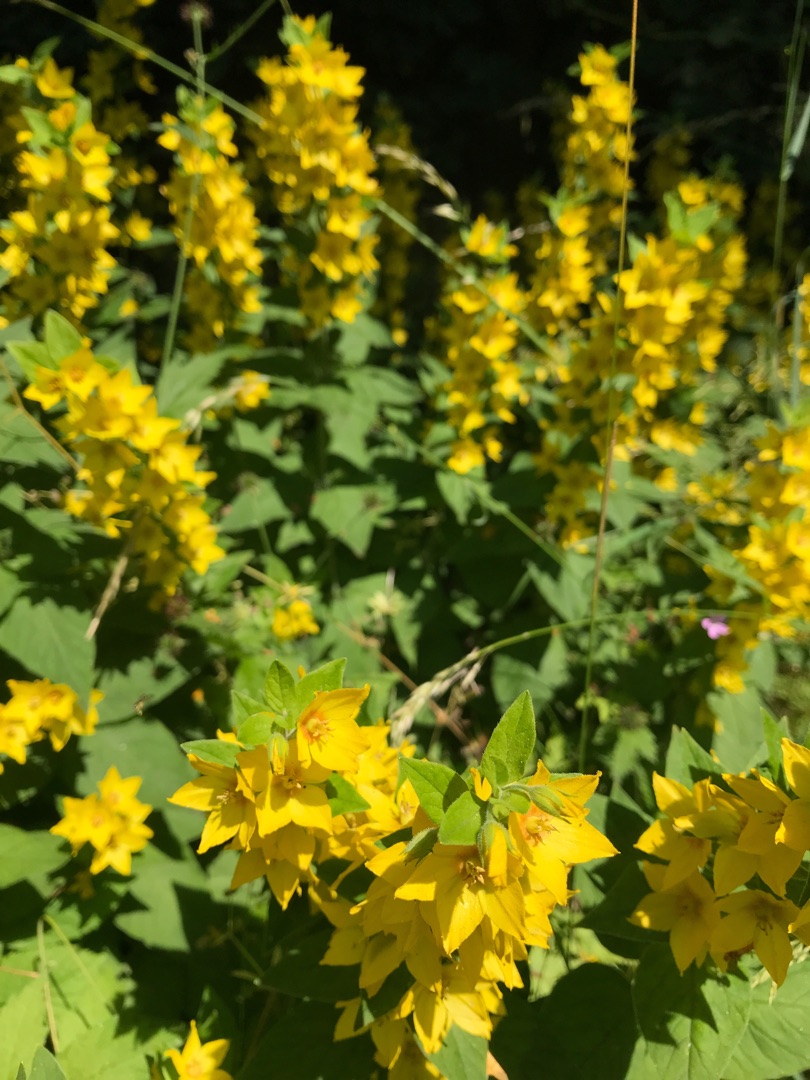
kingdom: Plantae
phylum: Tracheophyta
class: Magnoliopsida
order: Ericales
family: Primulaceae
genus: Lysimachia
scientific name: Lysimachia punctata
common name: Prikbladet fredløs
